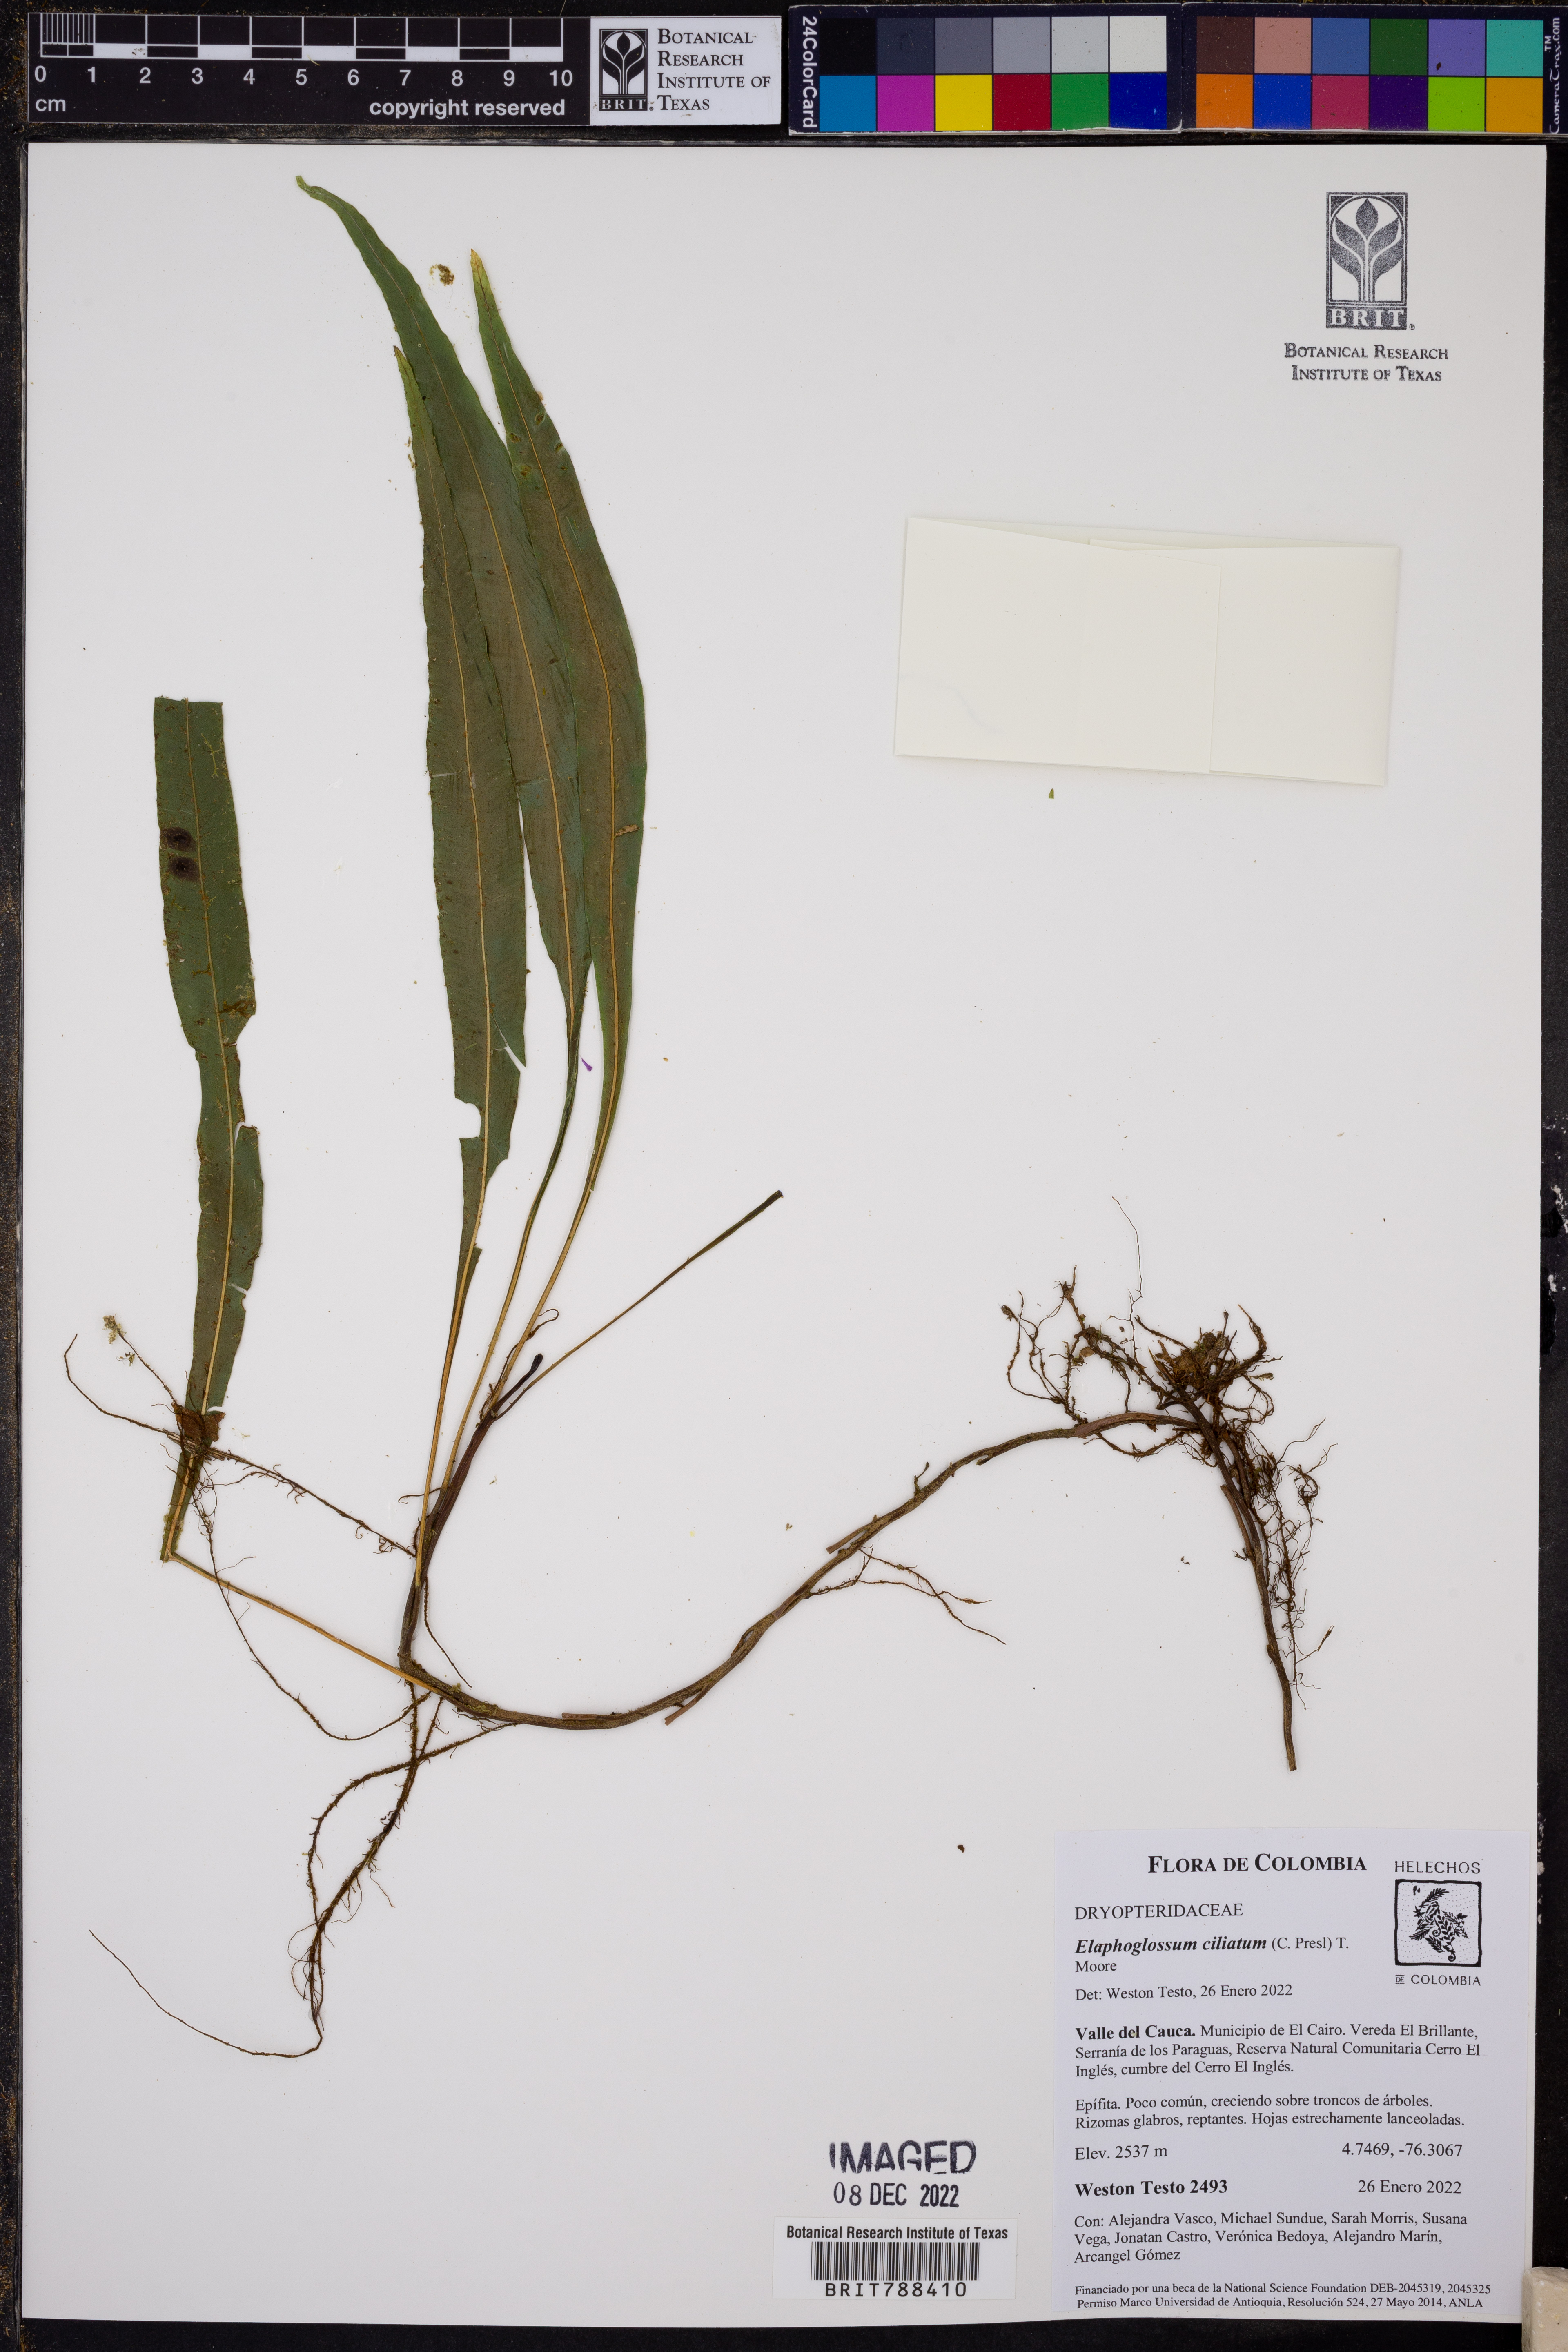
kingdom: Plantae
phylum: Tracheophyta
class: Polypodiopsida
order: Polypodiales
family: Dryopteridaceae
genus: Elaphoglossum
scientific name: Elaphoglossum ciliatum
